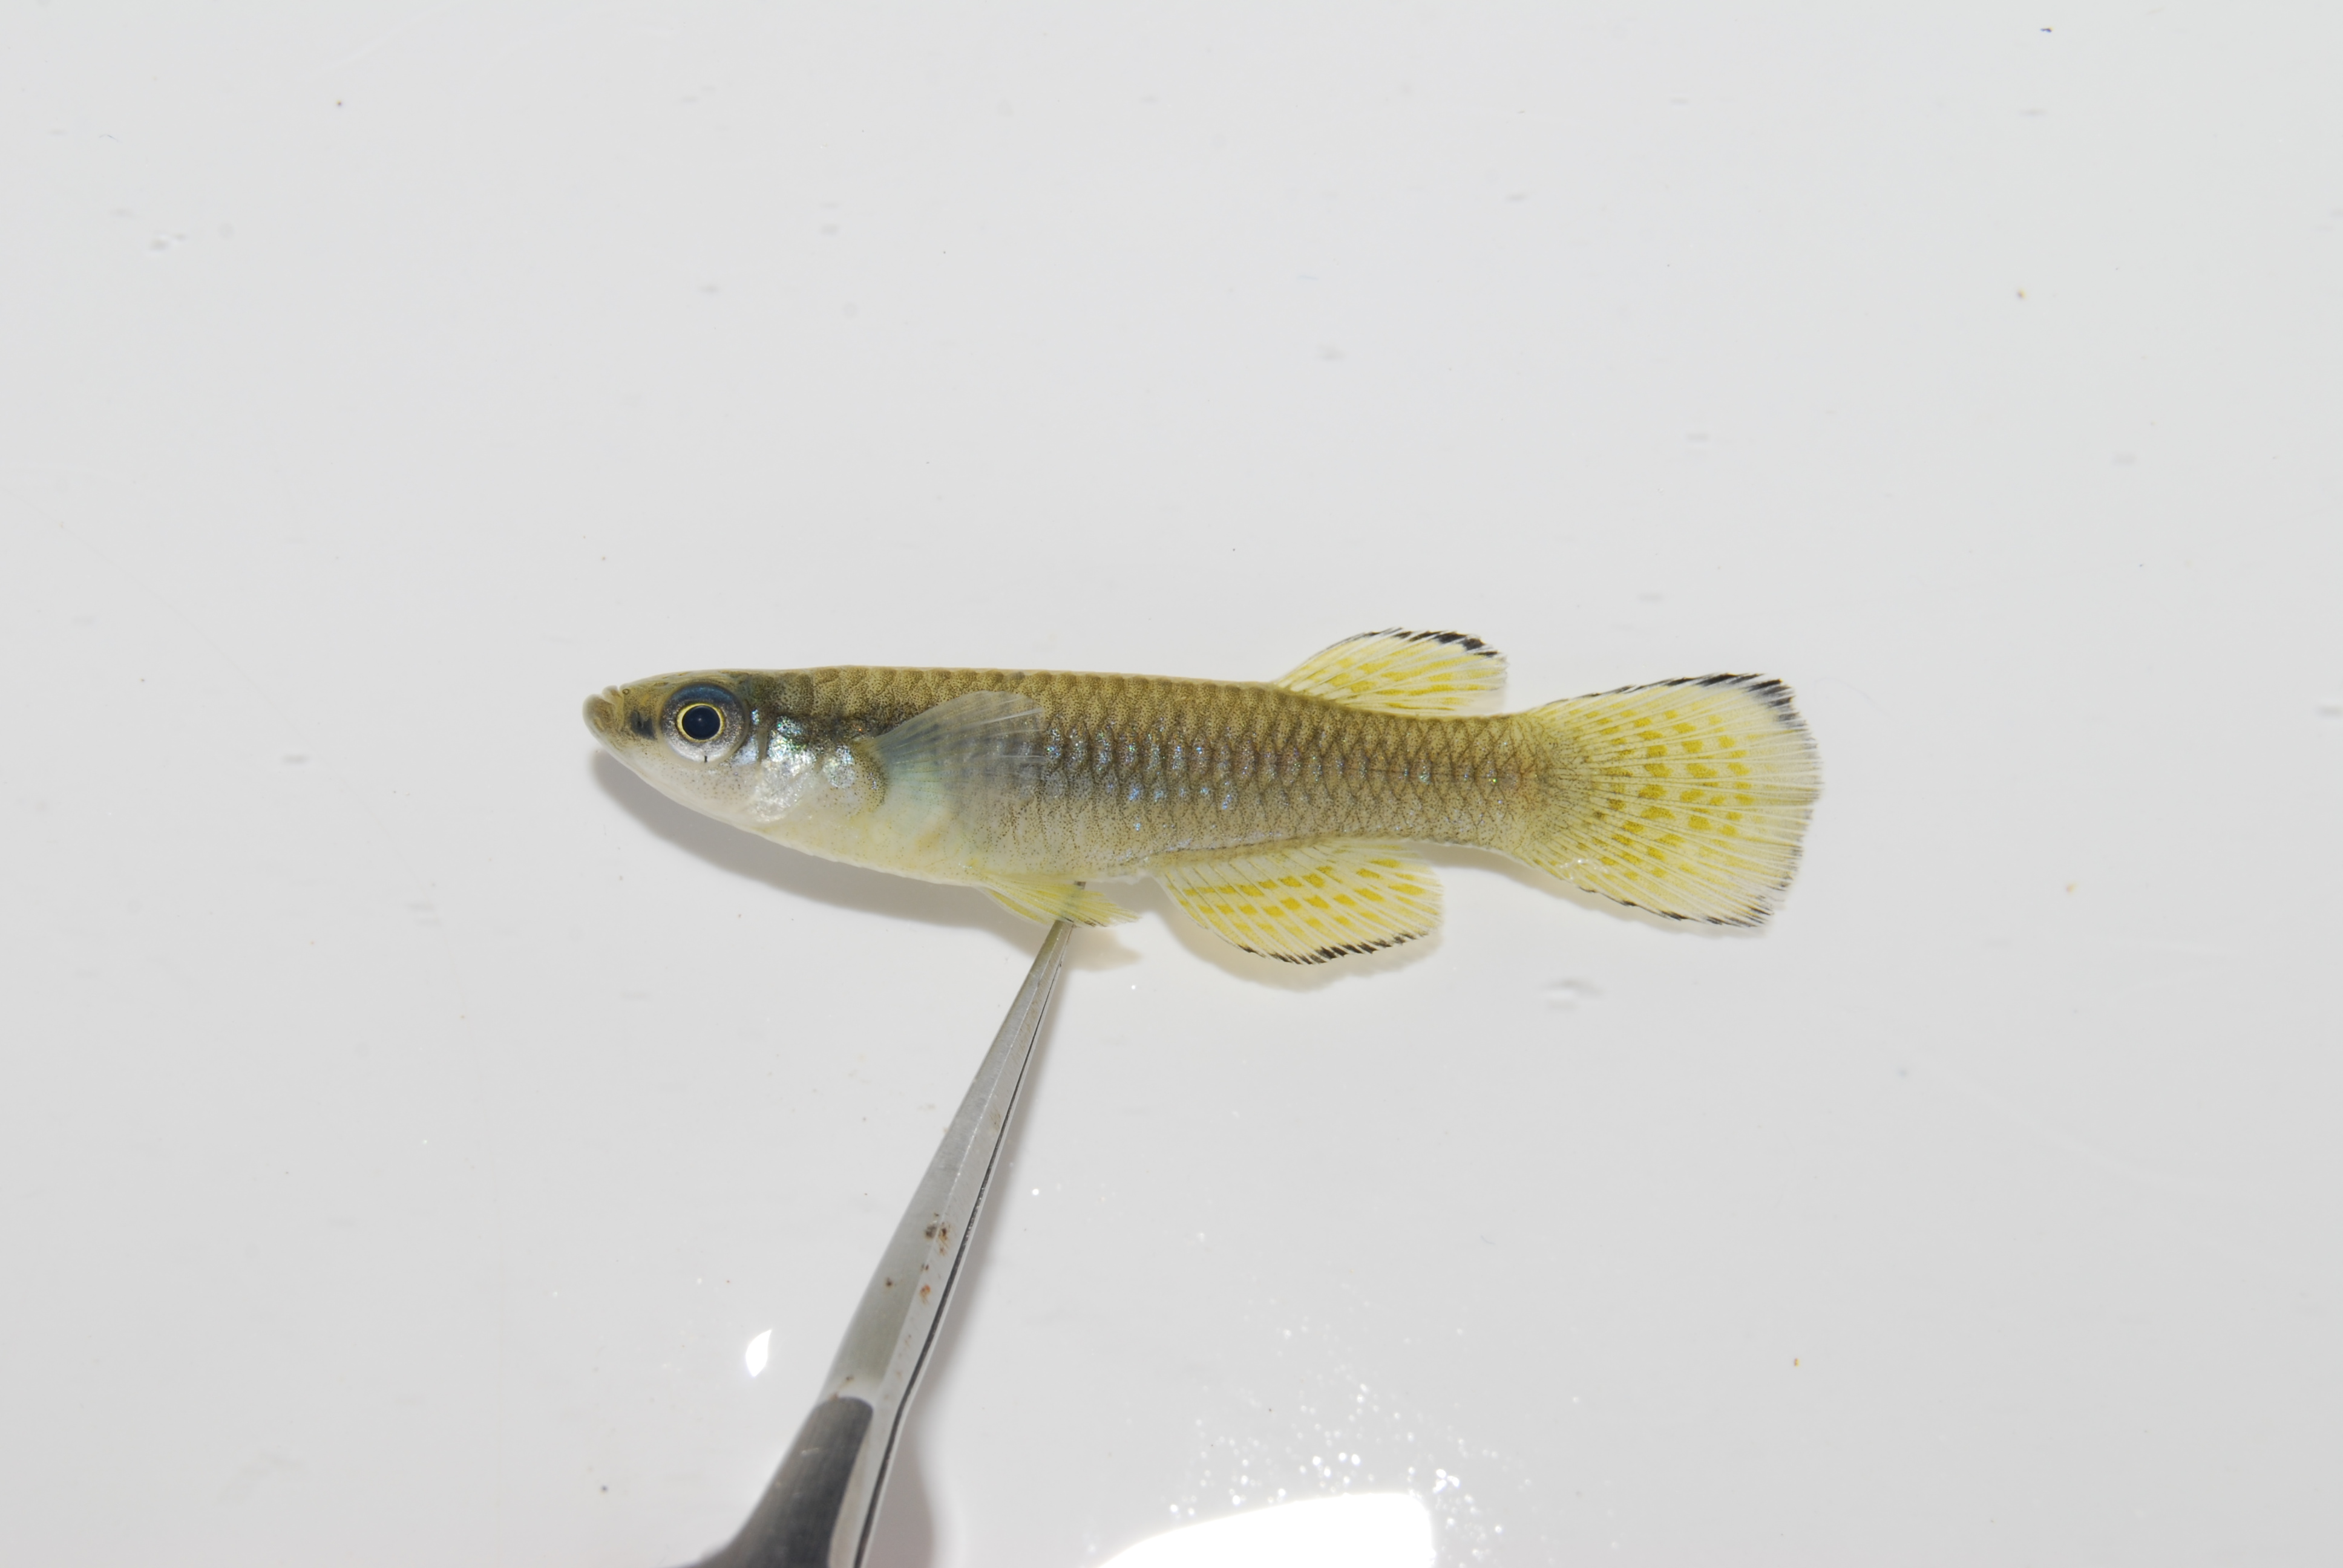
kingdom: Animalia
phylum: Chordata
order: Cyprinodontiformes
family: Poeciliidae
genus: Micropanchax
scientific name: Micropanchax johnstoni
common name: Johnston's topminnow
